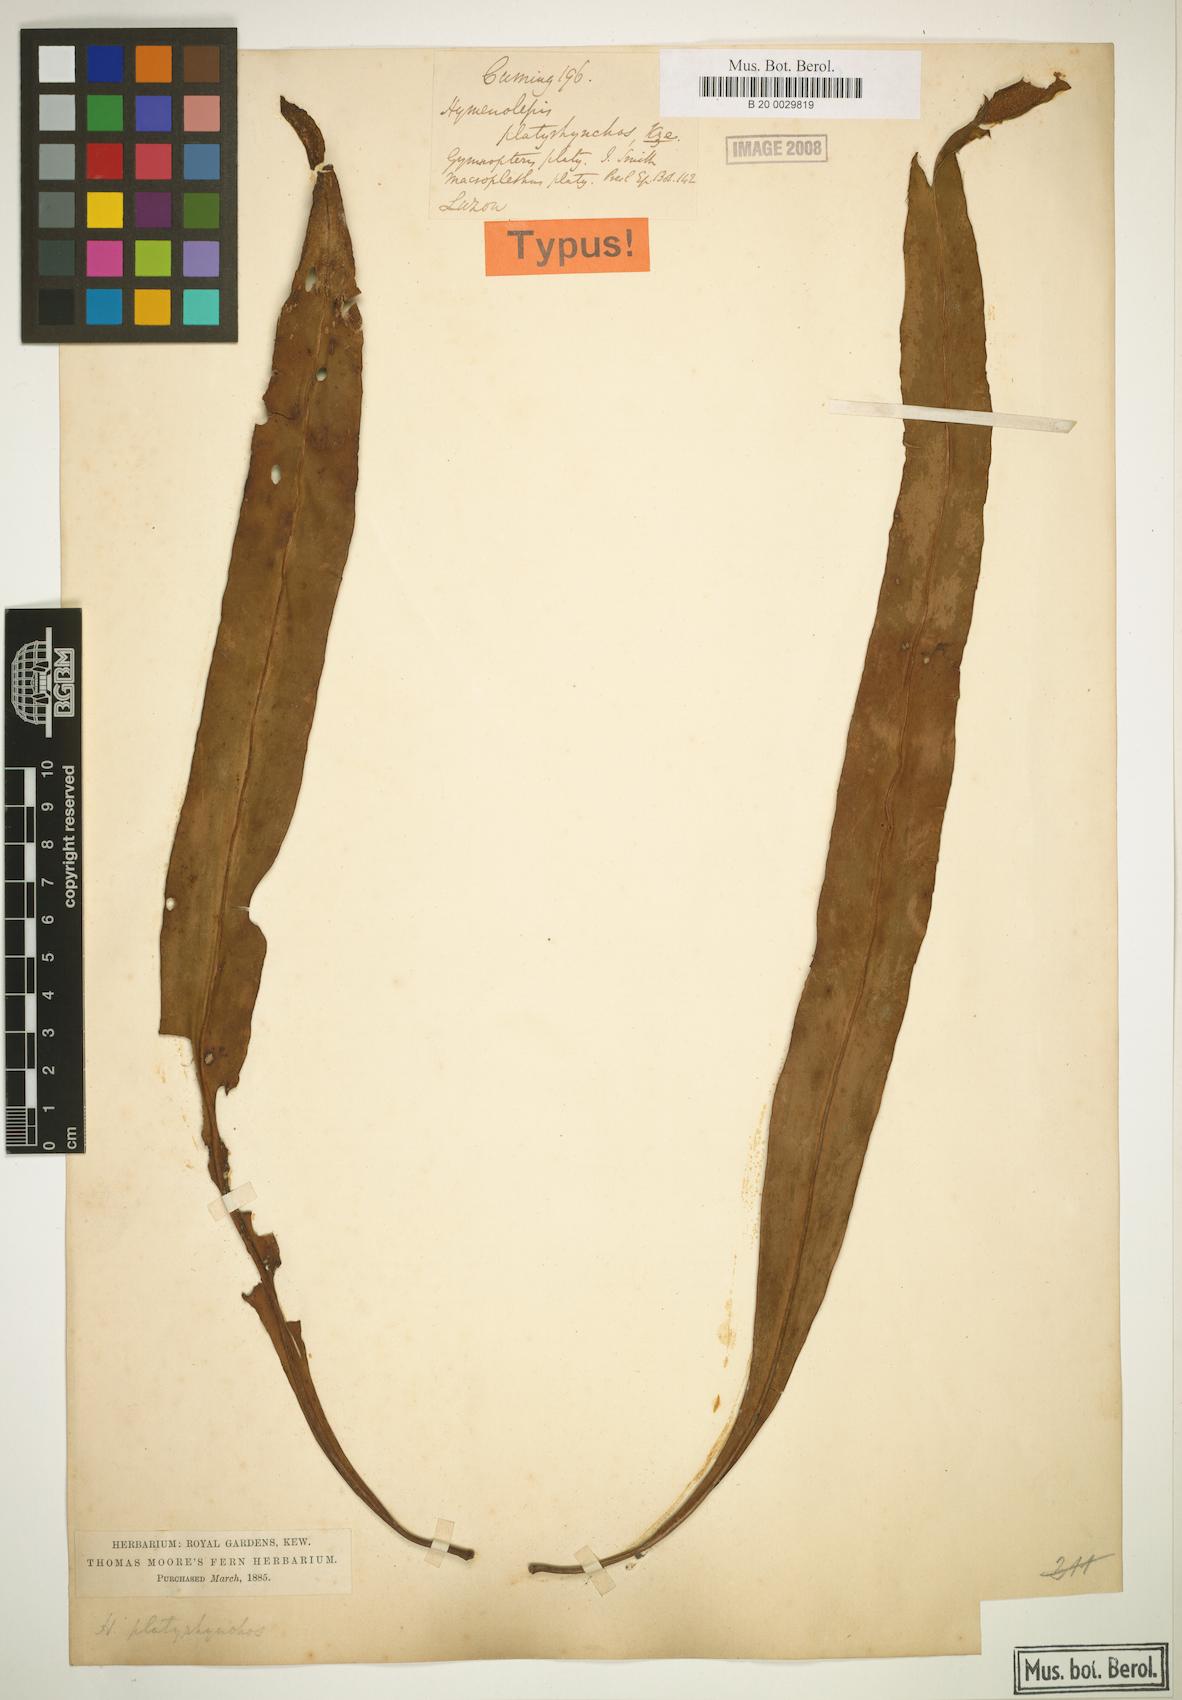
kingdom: Plantae
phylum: Tracheophyta
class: Polypodiopsida
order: Polypodiales
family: Polypodiaceae
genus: Lepisorus
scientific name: Lepisorus platyrhynchos
